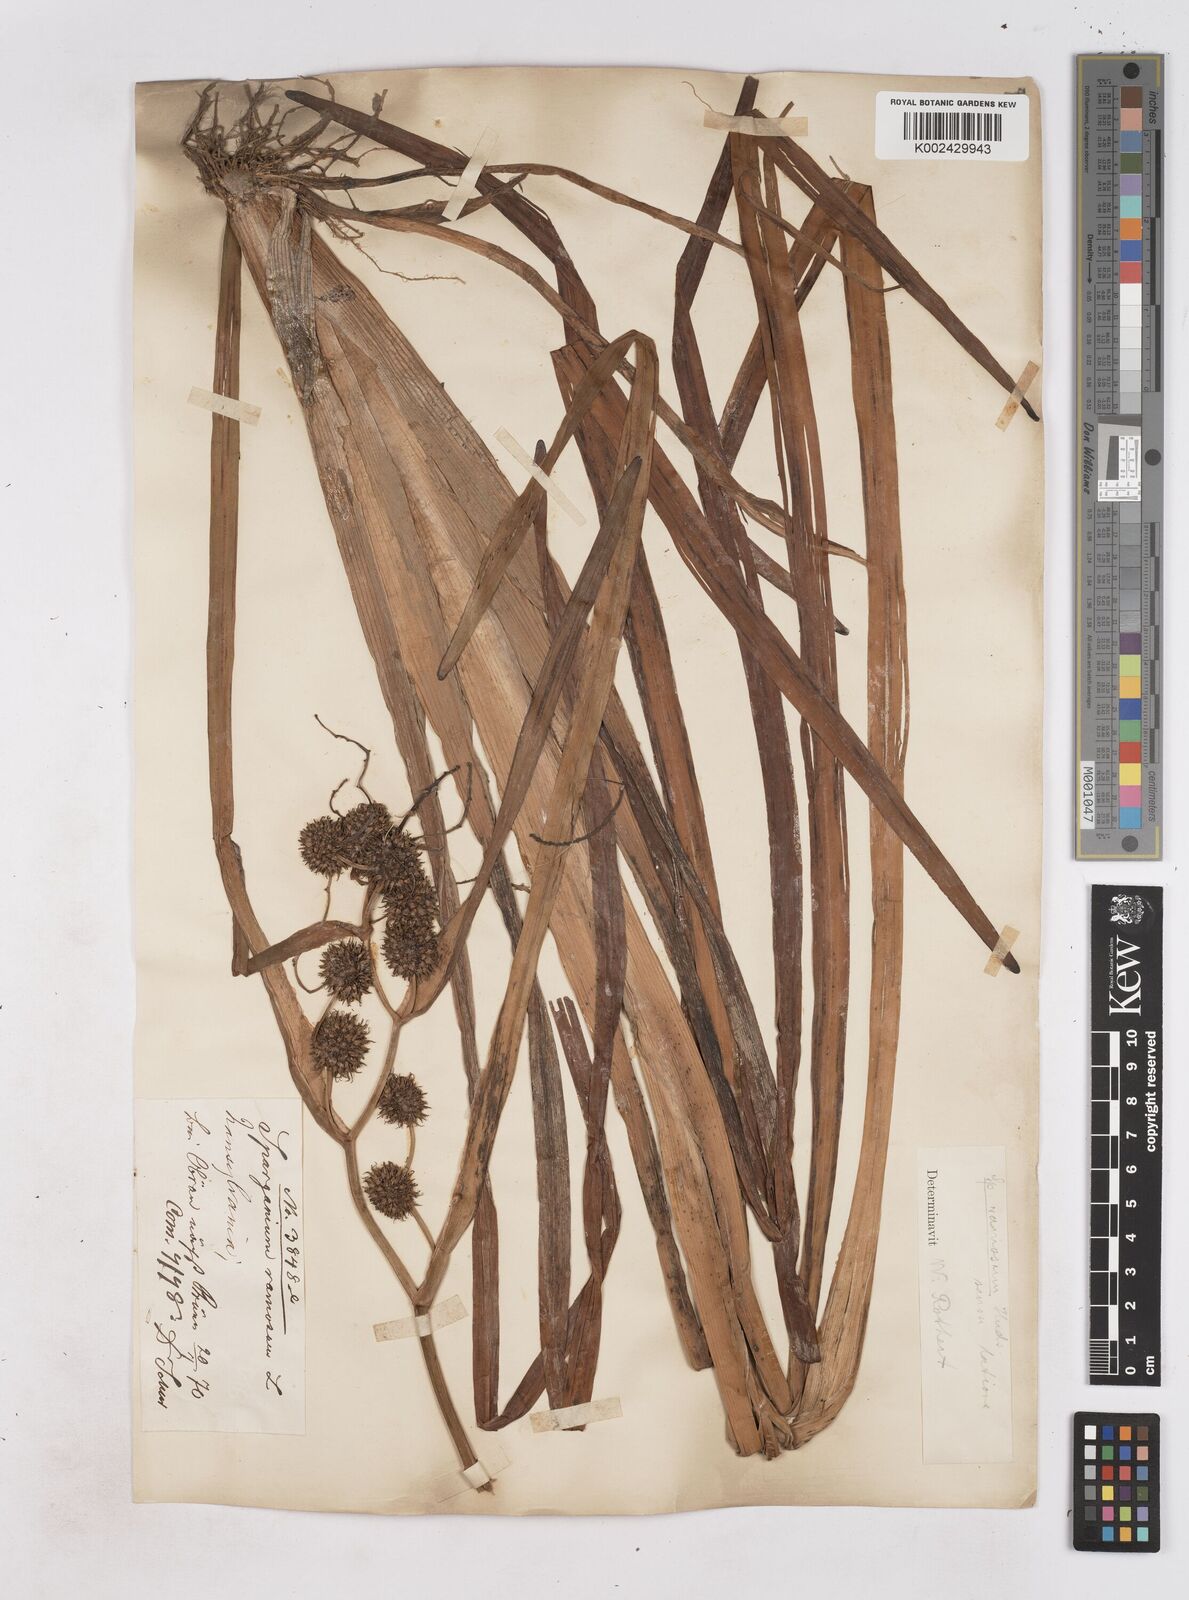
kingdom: Plantae
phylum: Tracheophyta
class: Liliopsida
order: Poales
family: Typhaceae
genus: Sparganium
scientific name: Sparganium erectum
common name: Branched bur-reed
